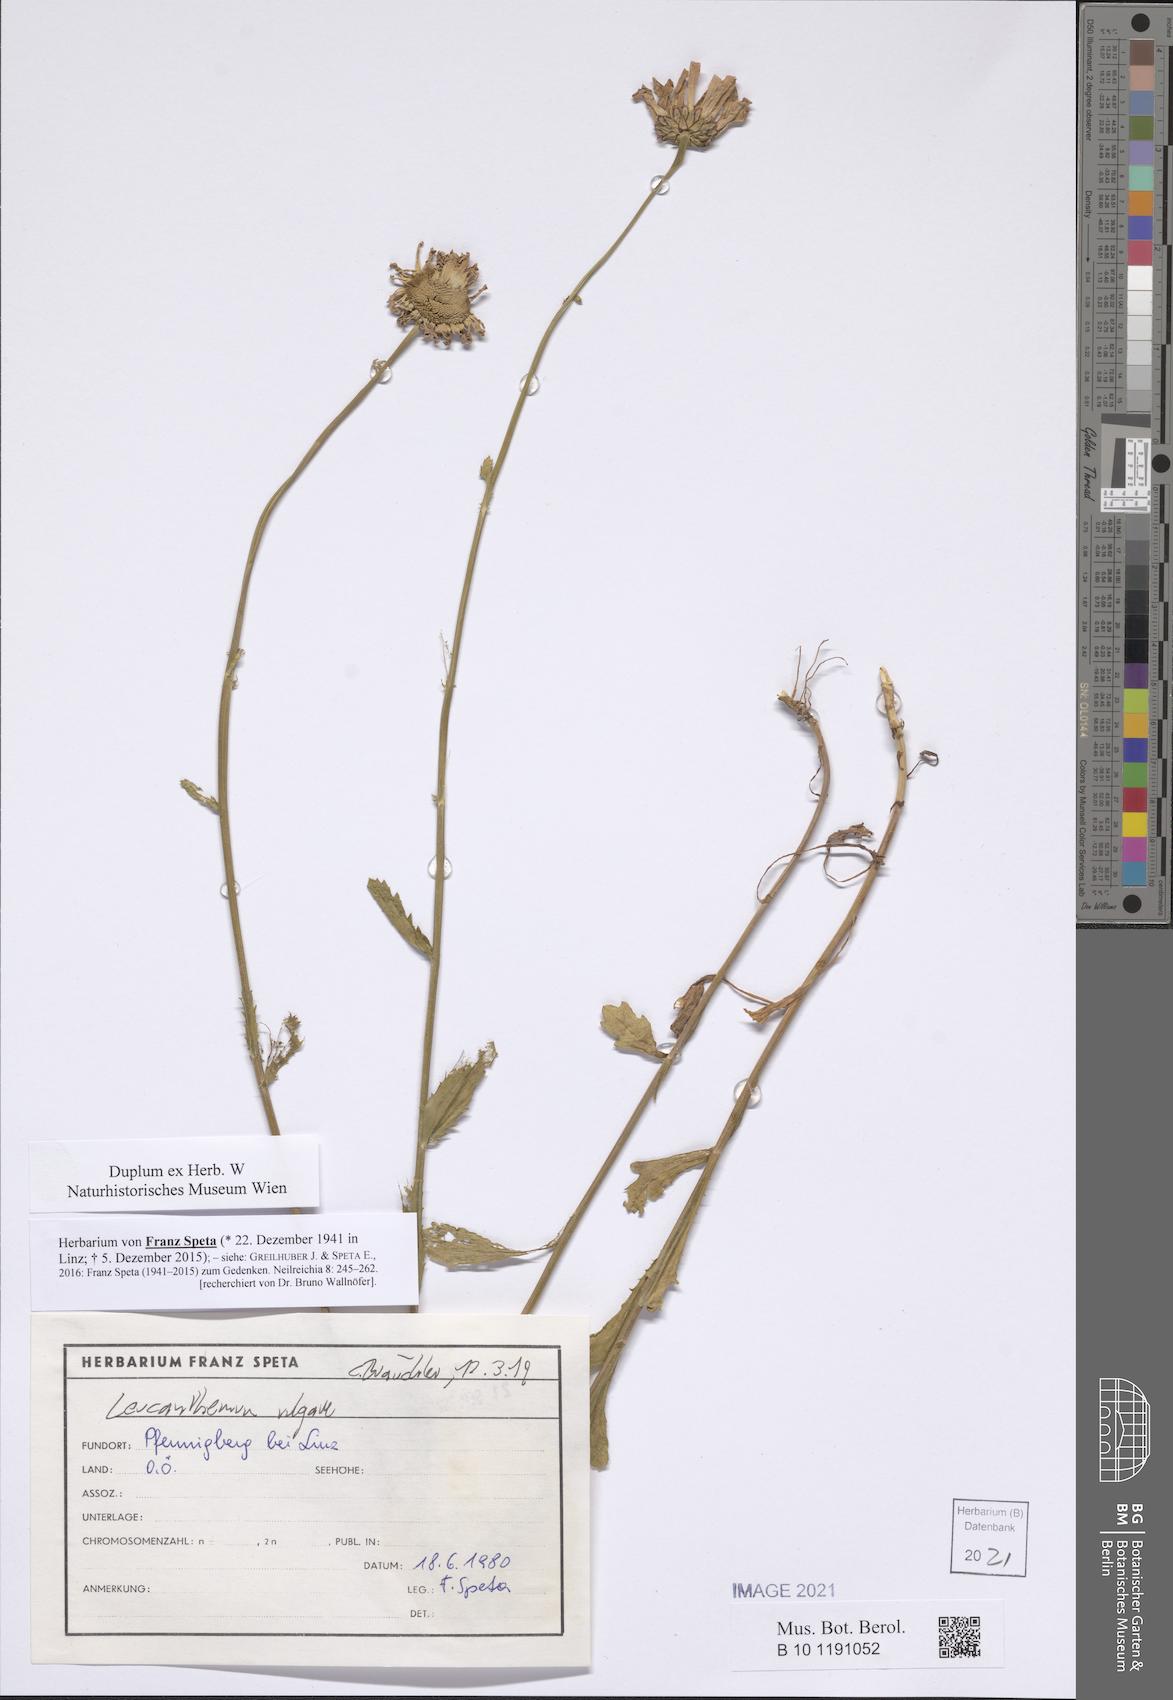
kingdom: Plantae
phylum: Tracheophyta
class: Magnoliopsida
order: Asterales
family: Asteraceae
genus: Leucanthemum
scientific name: Leucanthemum ircutianum
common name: Daisy
